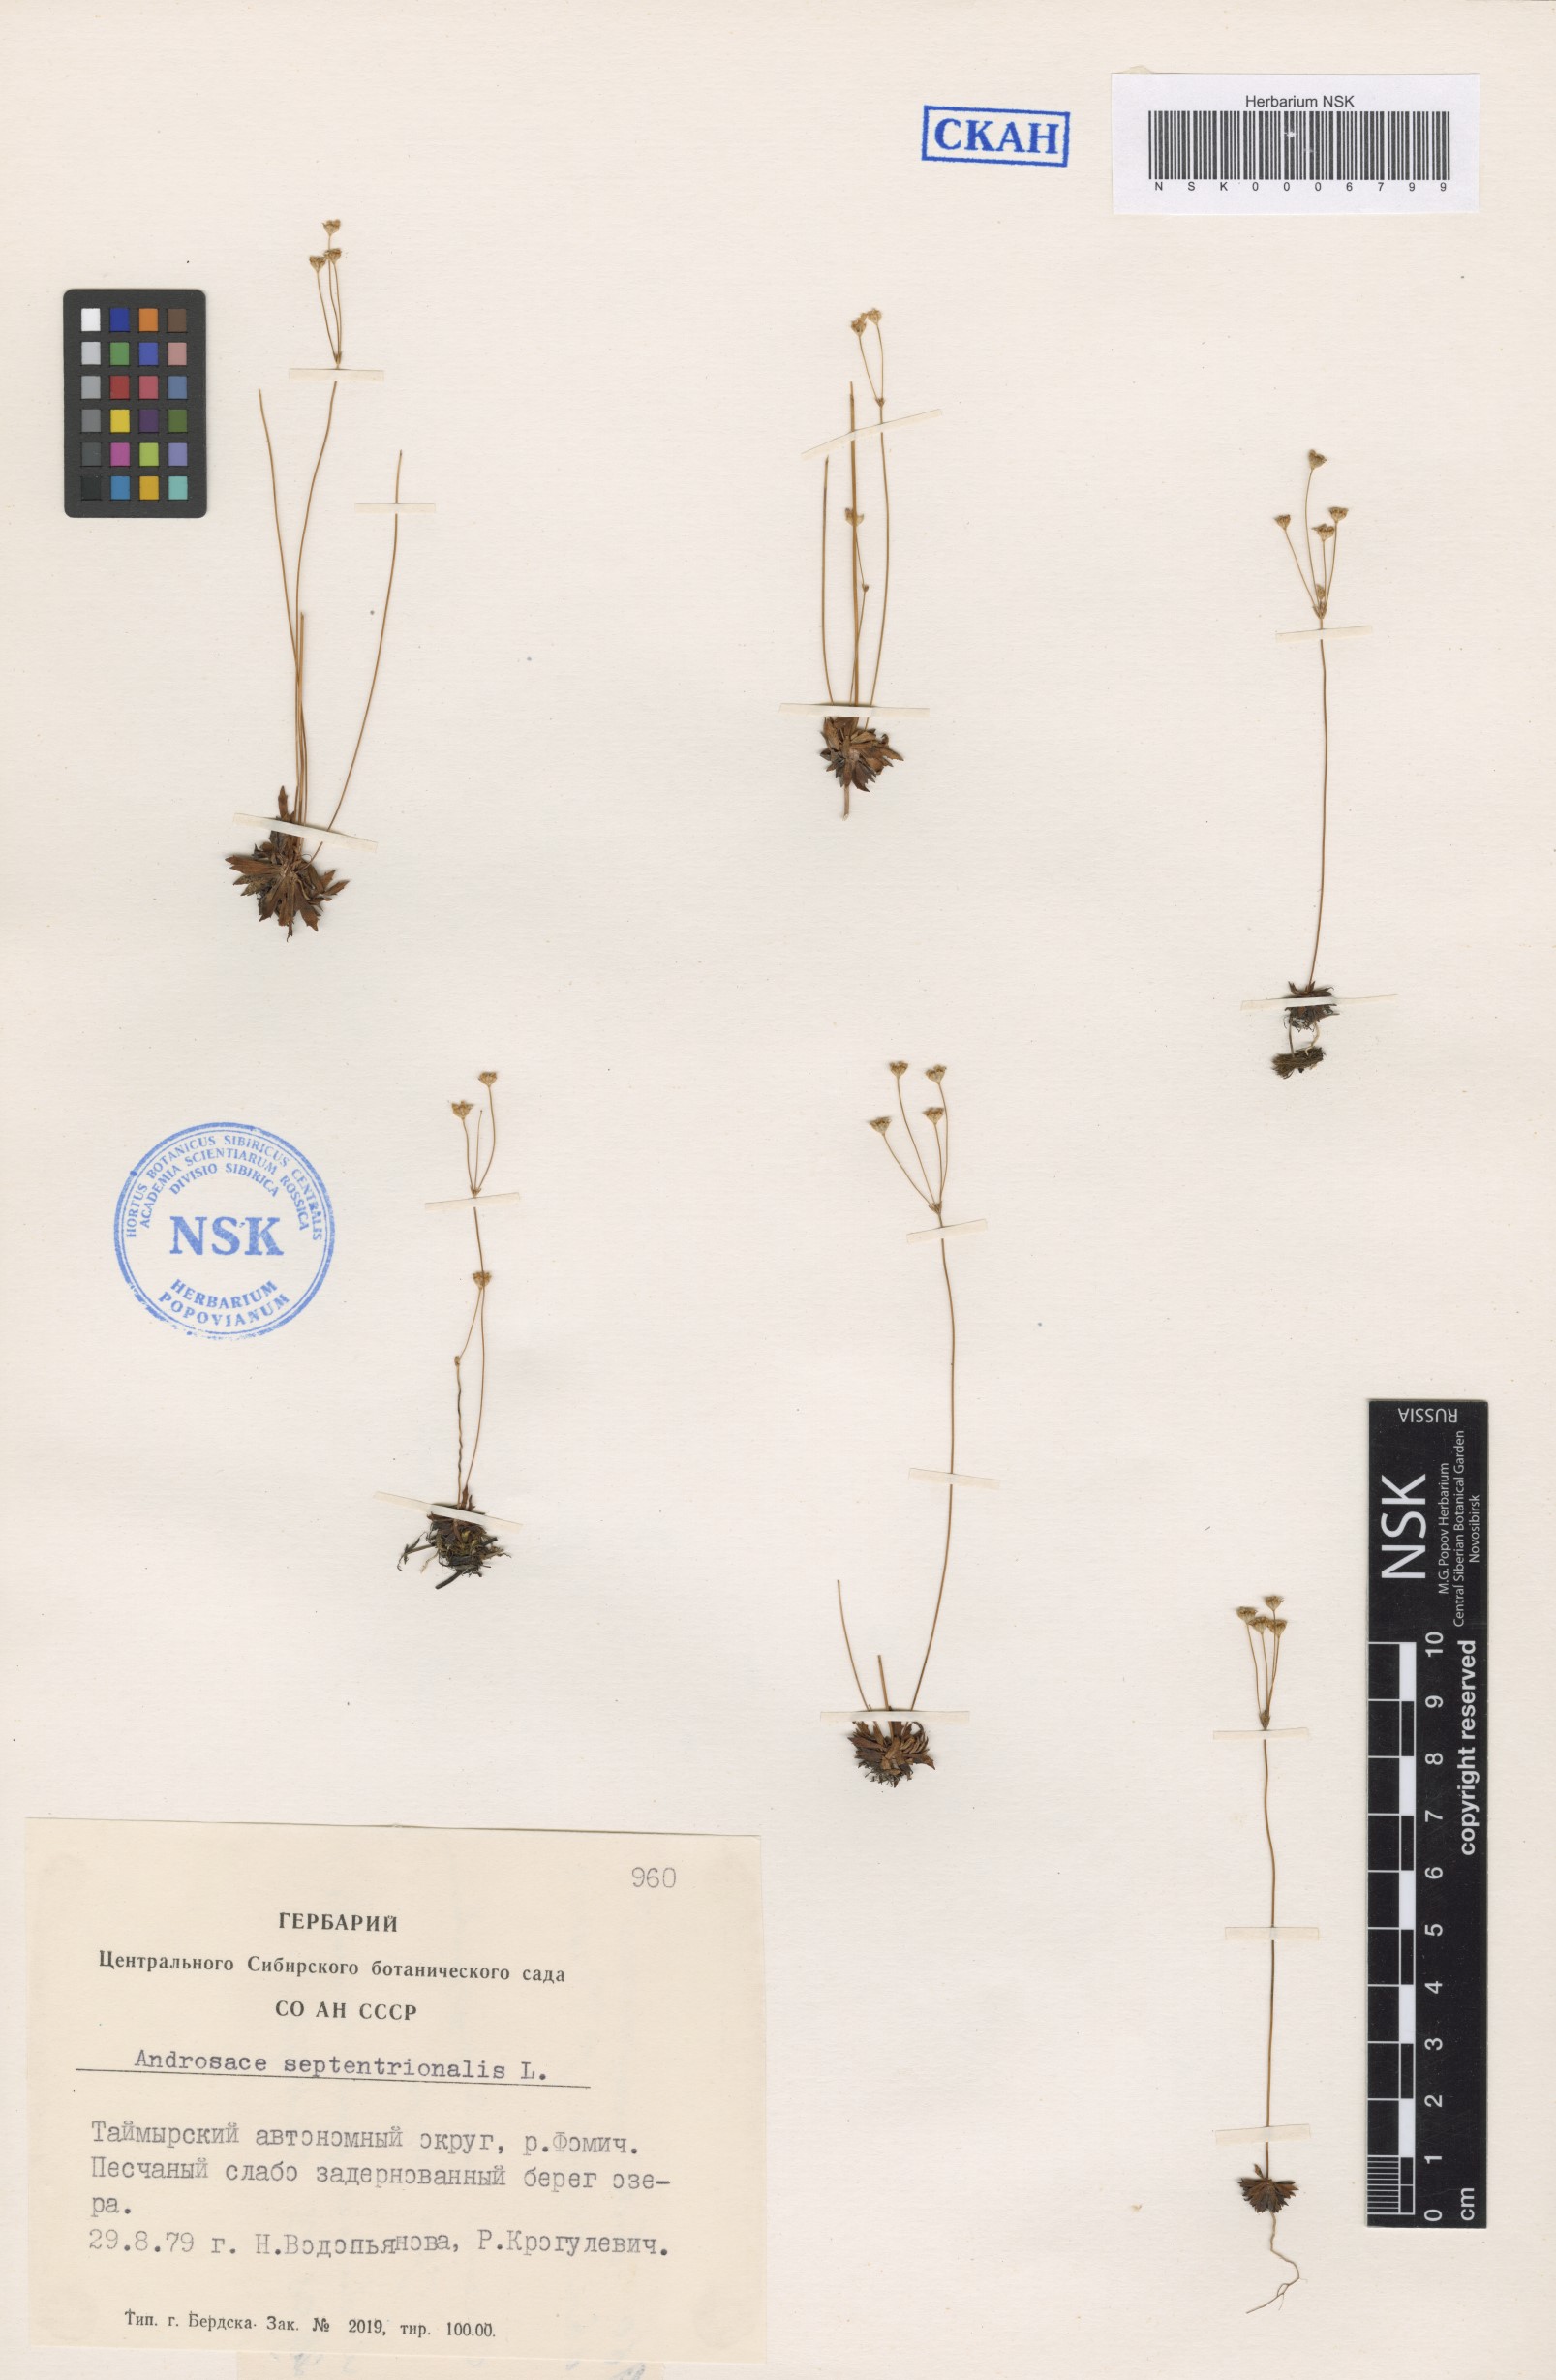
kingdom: Plantae
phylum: Tracheophyta
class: Magnoliopsida
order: Ericales
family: Primulaceae
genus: Androsace
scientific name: Androsace septentrionalis
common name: Hairy northern fairy-candelabra
